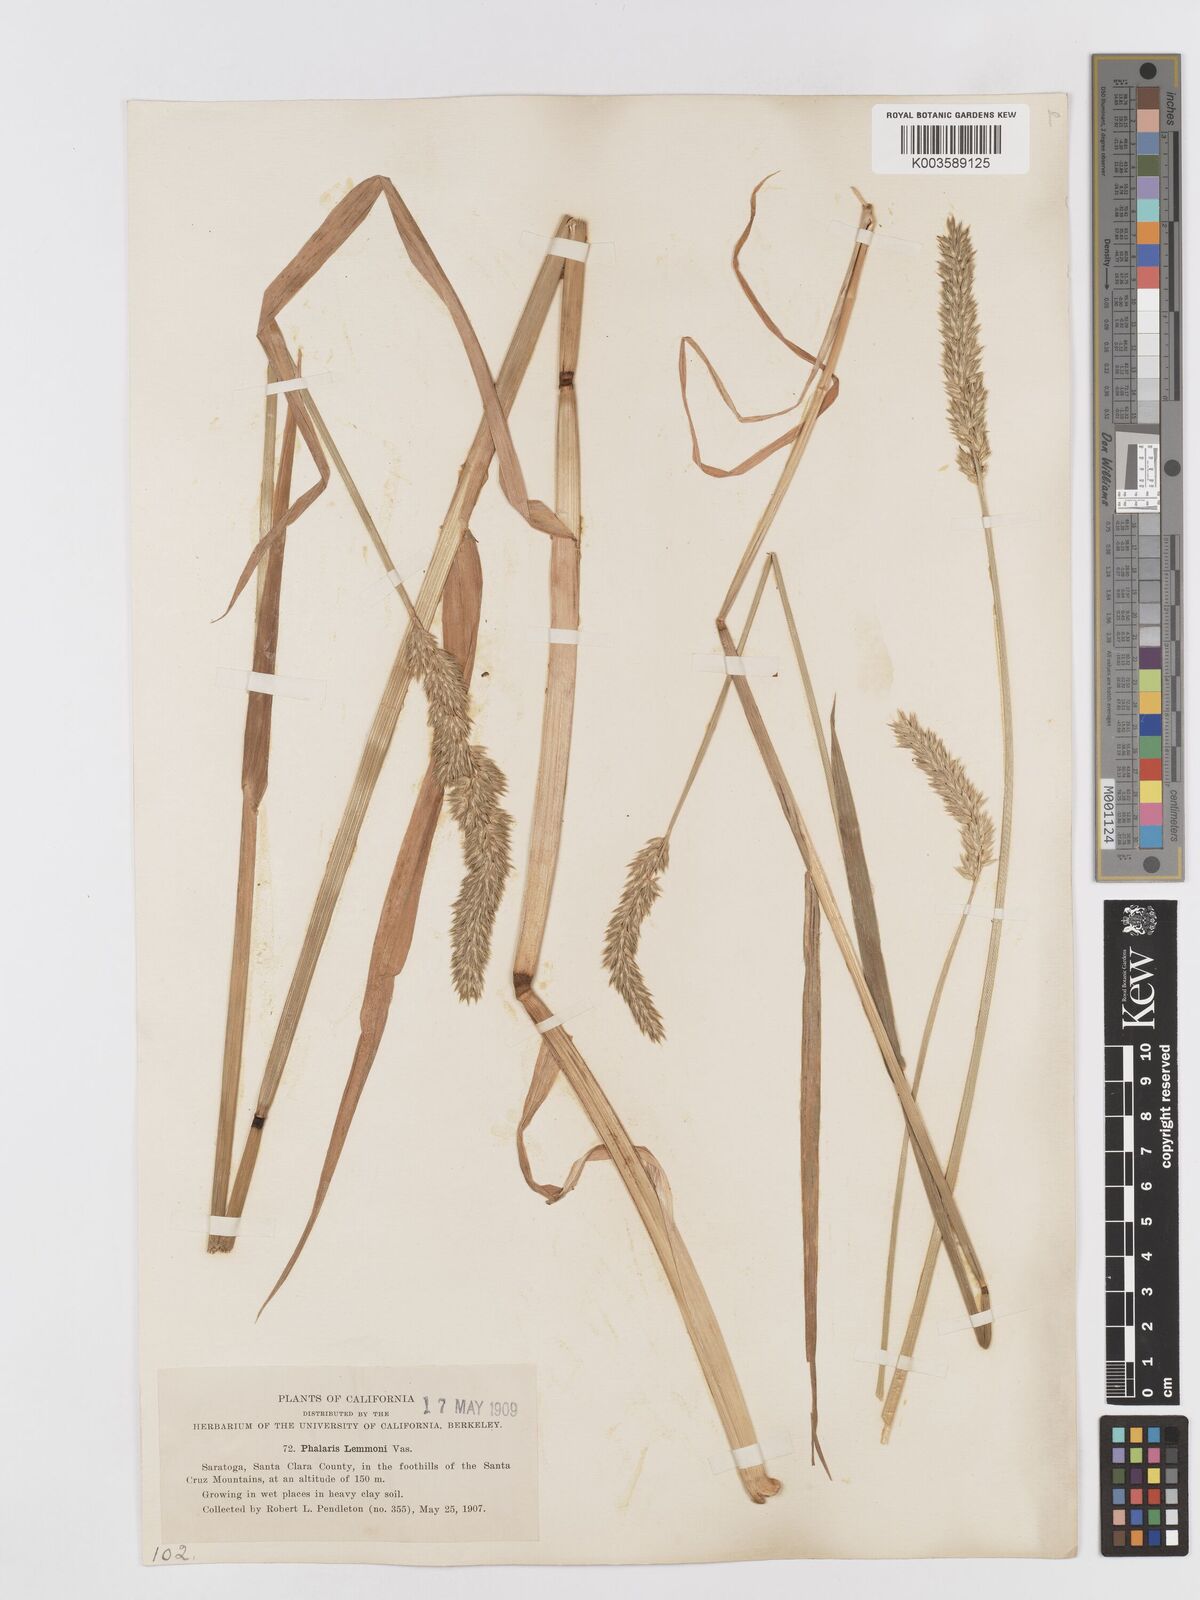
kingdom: Plantae
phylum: Tracheophyta
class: Liliopsida
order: Poales
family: Poaceae
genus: Phalaris
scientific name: Phalaris lemmonii
